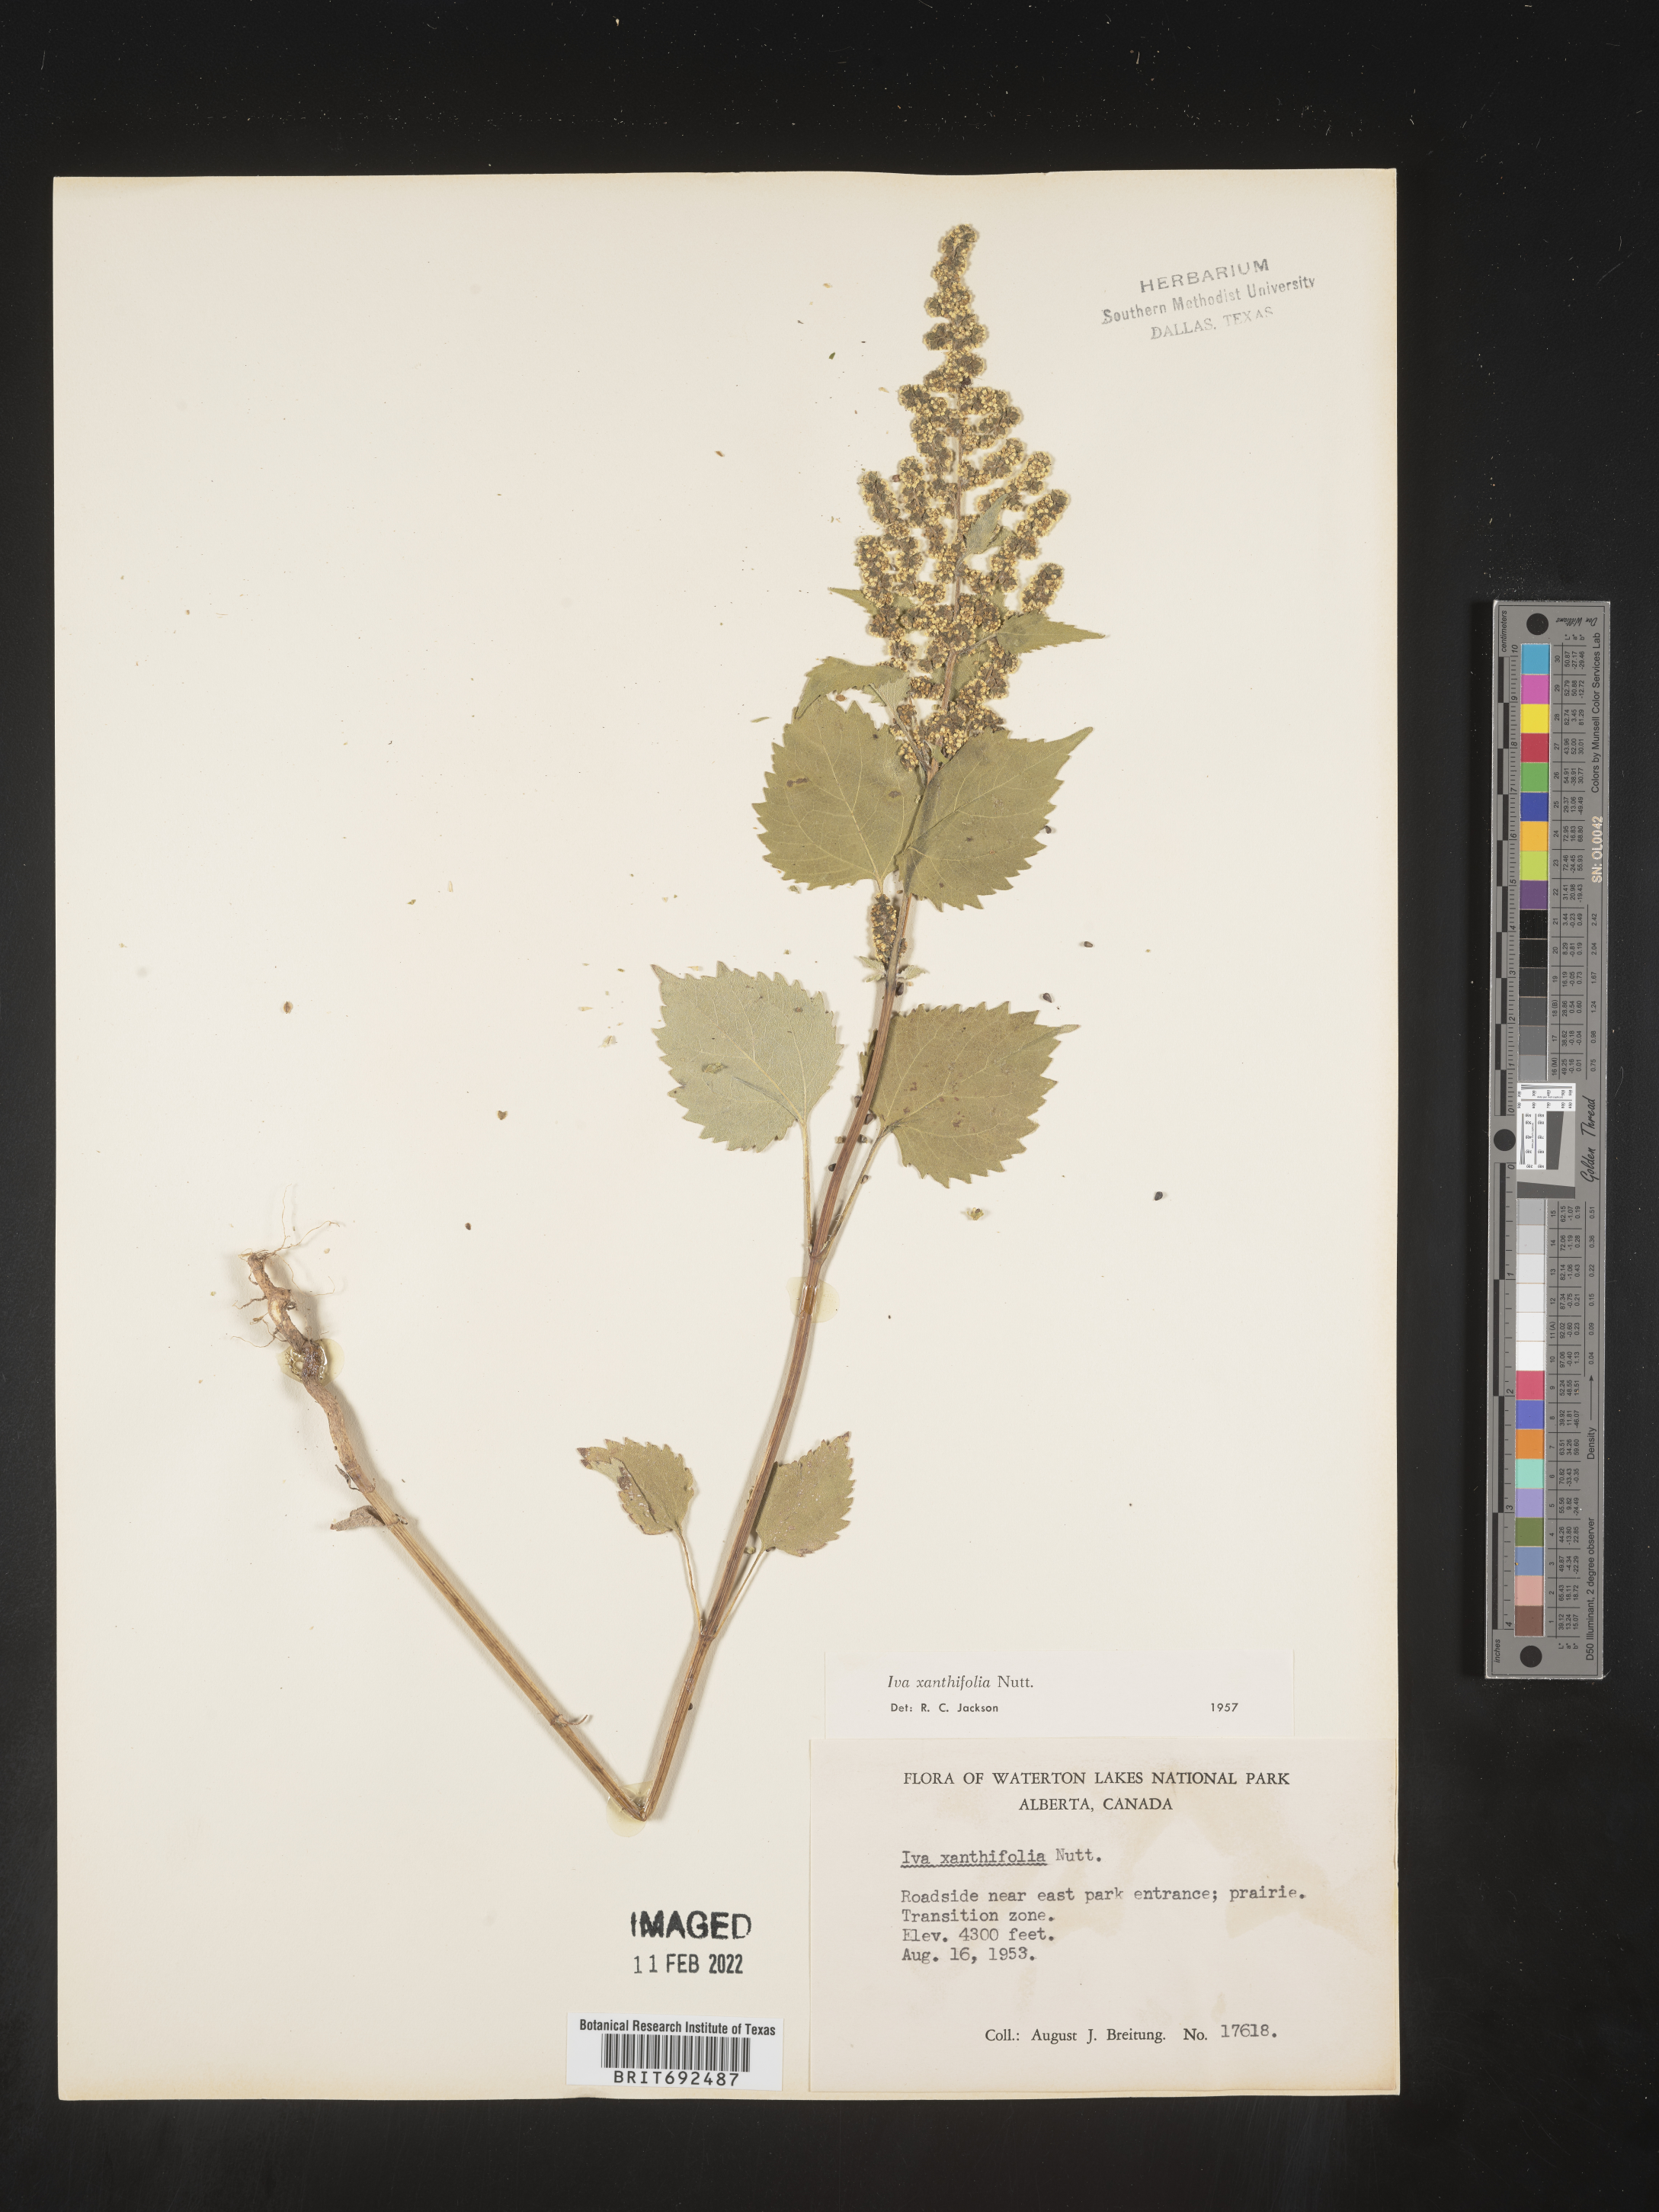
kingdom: Plantae
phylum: Tracheophyta
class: Magnoliopsida
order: Asterales
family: Asteraceae
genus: Cyclachaena
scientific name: Cyclachaena
